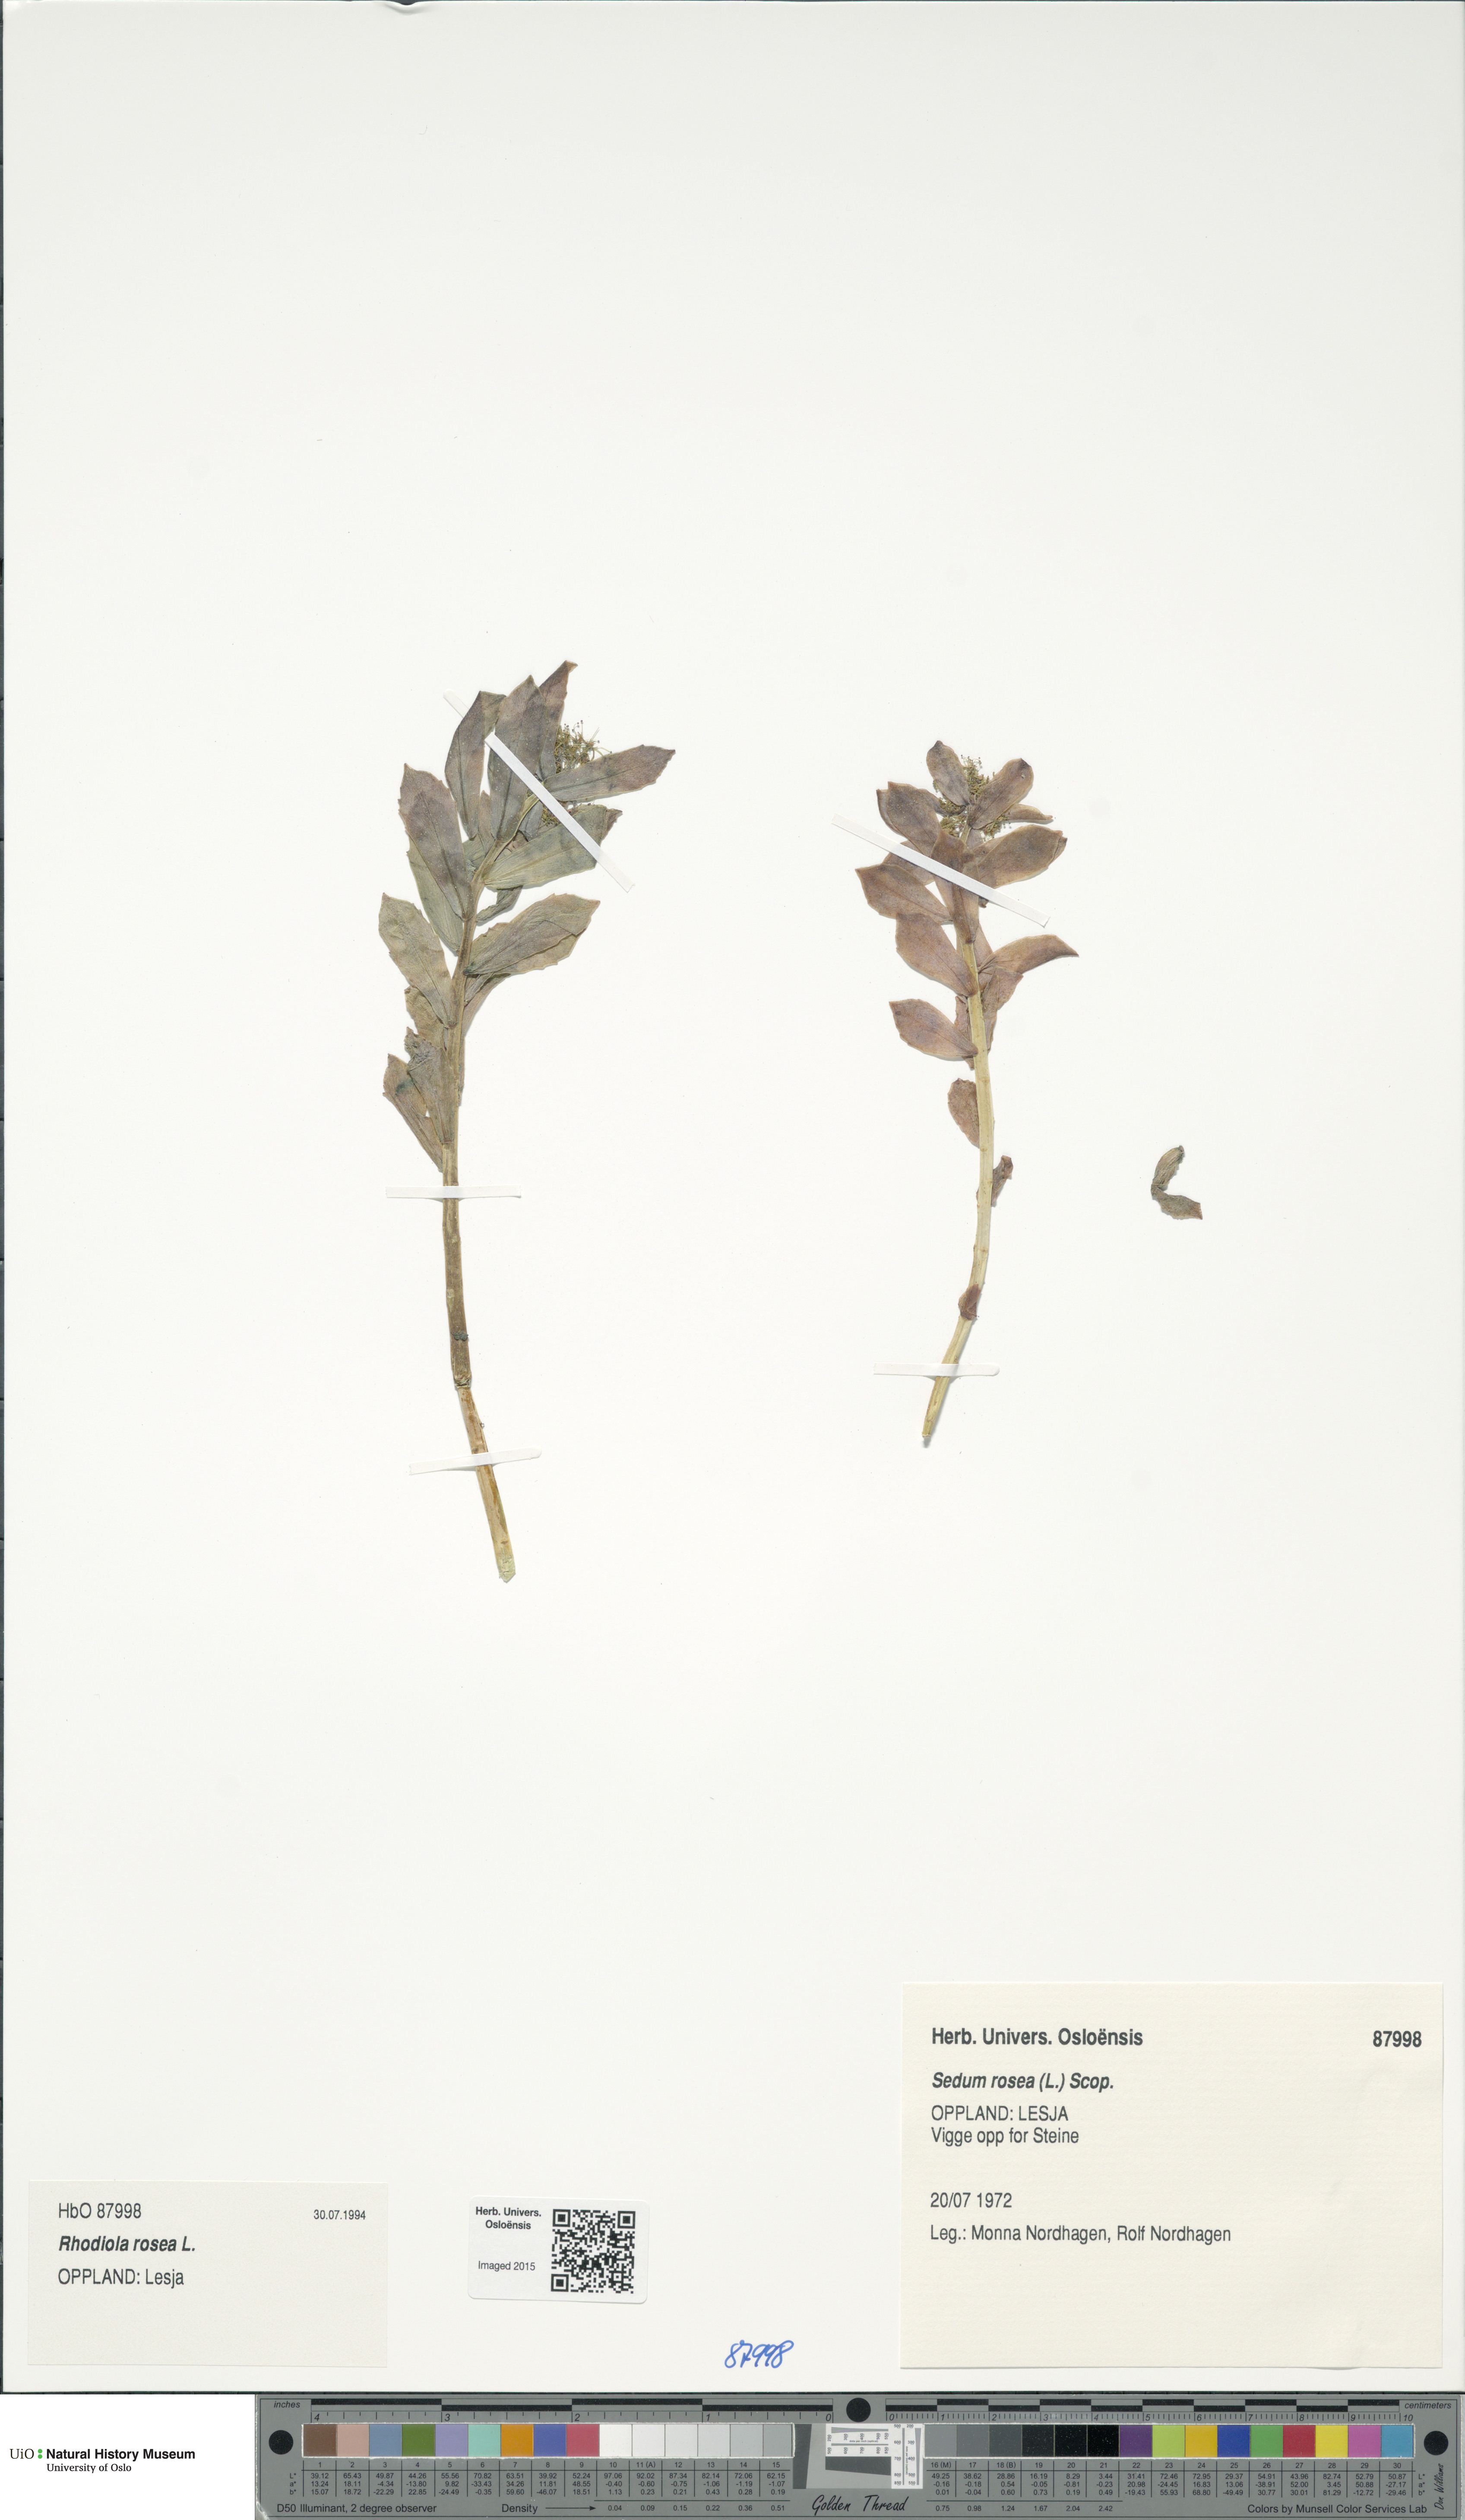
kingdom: Plantae
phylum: Tracheophyta
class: Magnoliopsida
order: Saxifragales
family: Crassulaceae
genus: Rhodiola
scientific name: Rhodiola rosea
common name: Roseroot
